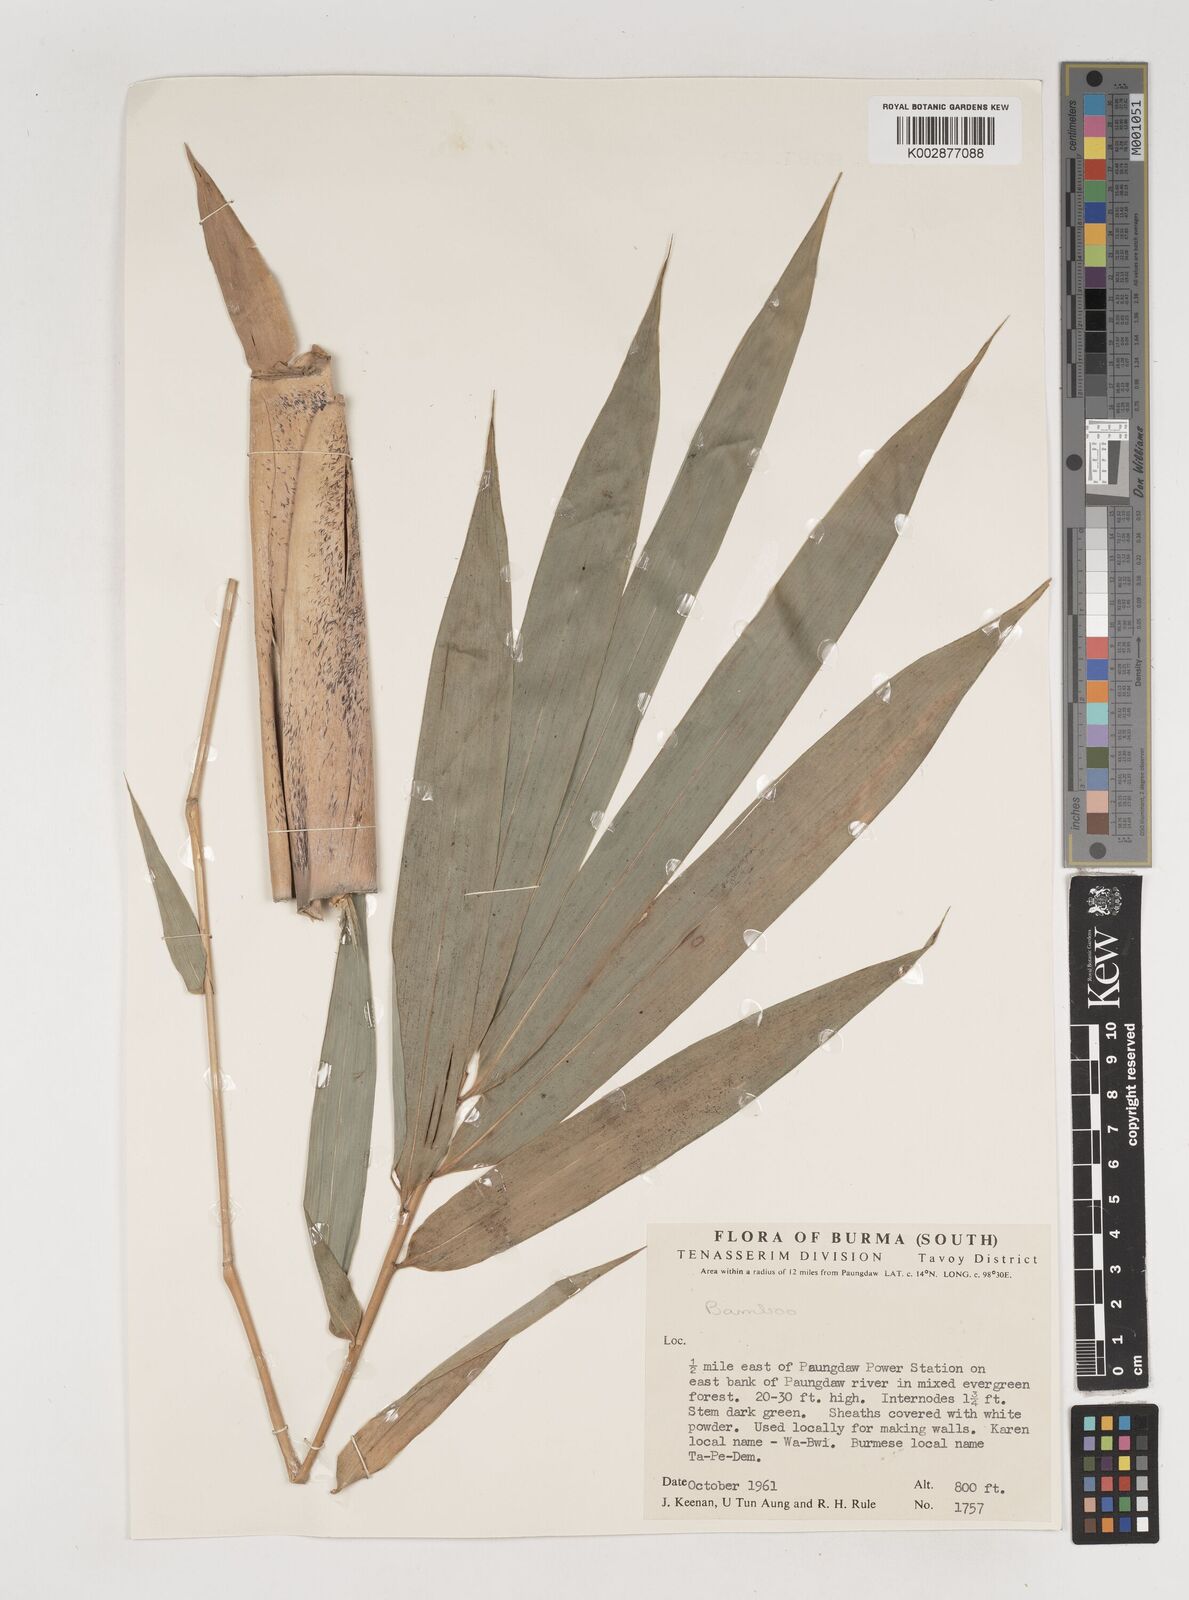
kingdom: Plantae
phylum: Tracheophyta
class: Liliopsida
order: Poales
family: Poaceae
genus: Bambusa
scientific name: Bambusa
